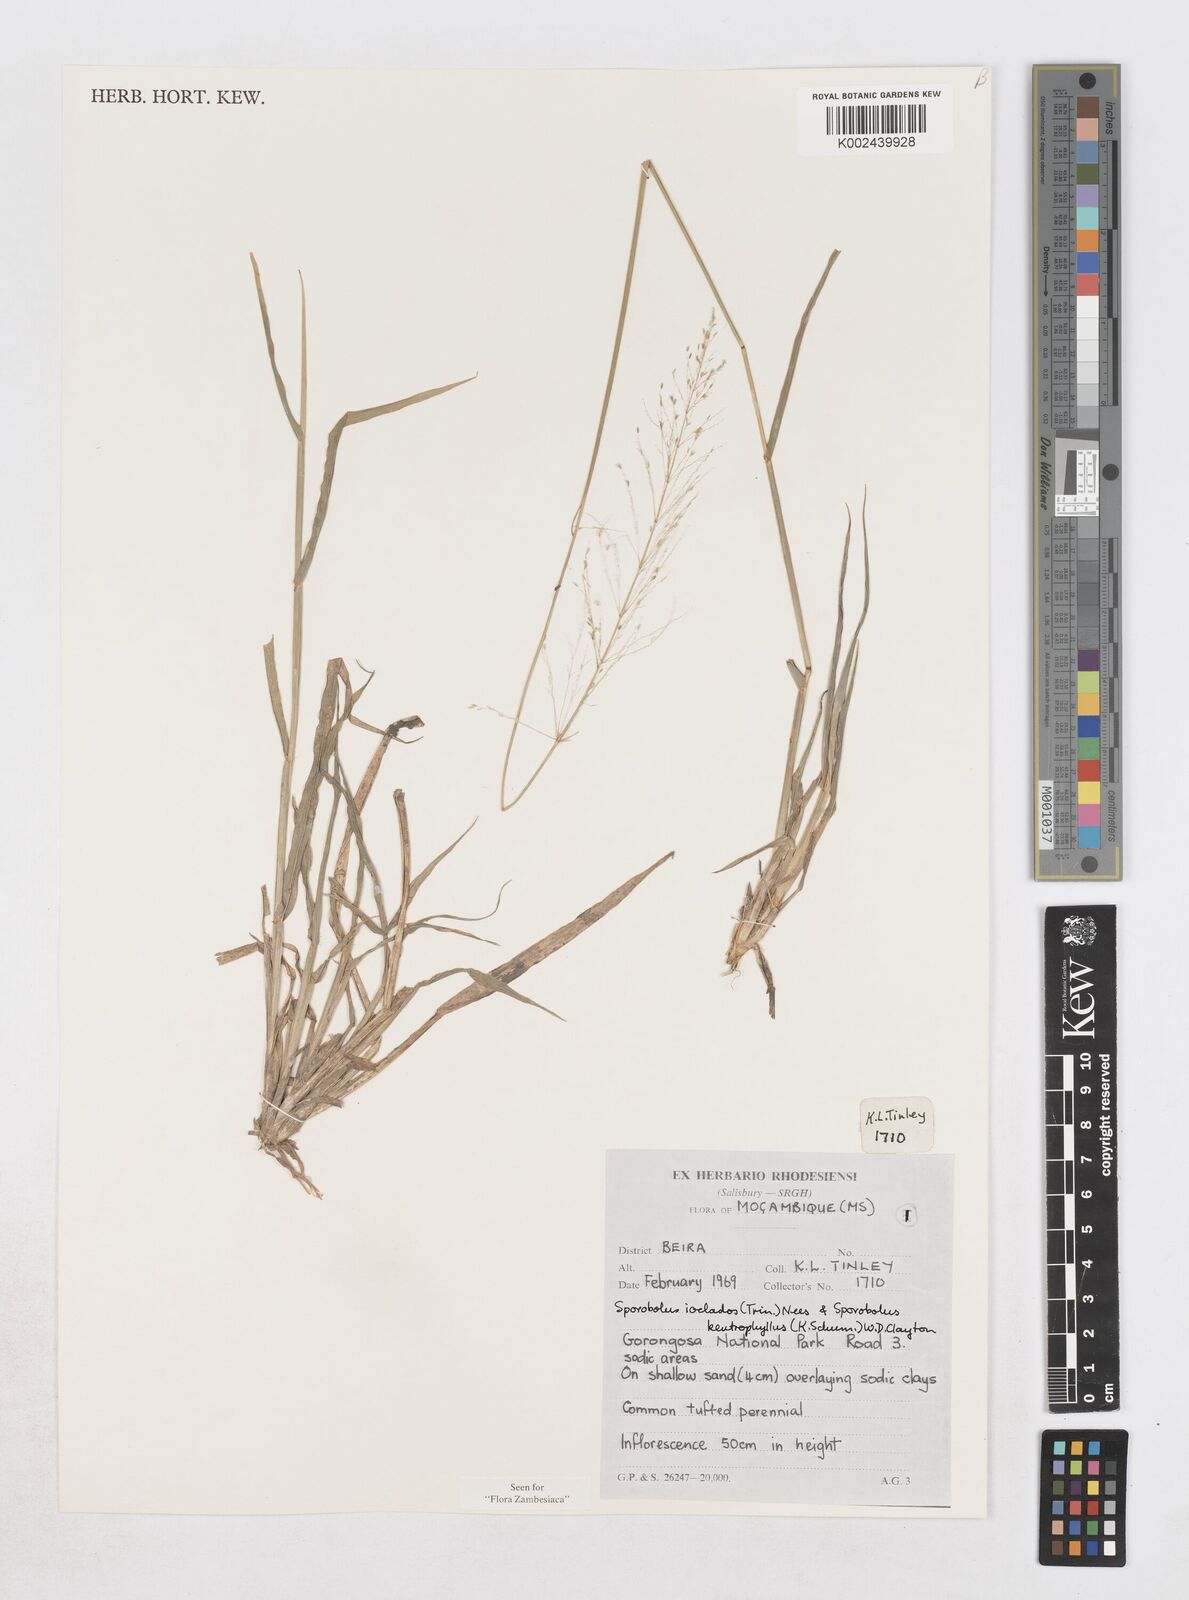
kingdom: Plantae
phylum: Tracheophyta
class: Liliopsida
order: Poales
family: Poaceae
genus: Sporobolus
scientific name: Sporobolus ioclados
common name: Pan dropseed
